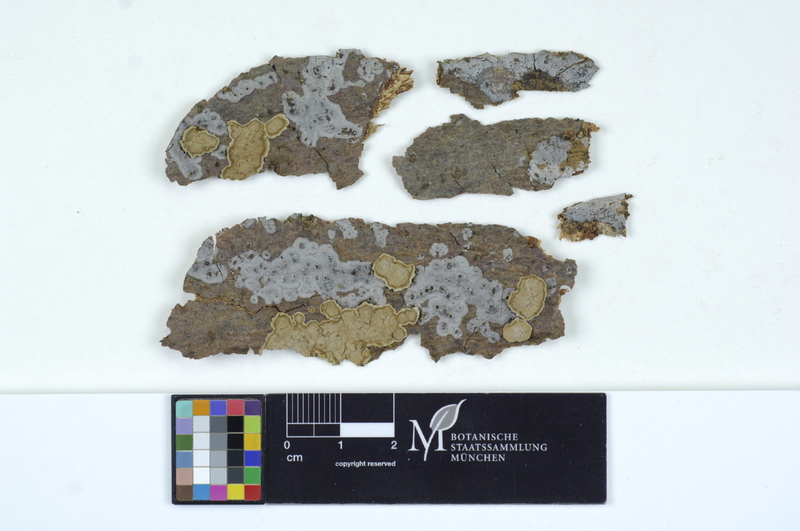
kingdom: Fungi
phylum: Basidiomycota
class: Agaricomycetes
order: Sebacinales
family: Sebacinaceae
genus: Sebacina
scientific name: Sebacina grisea
